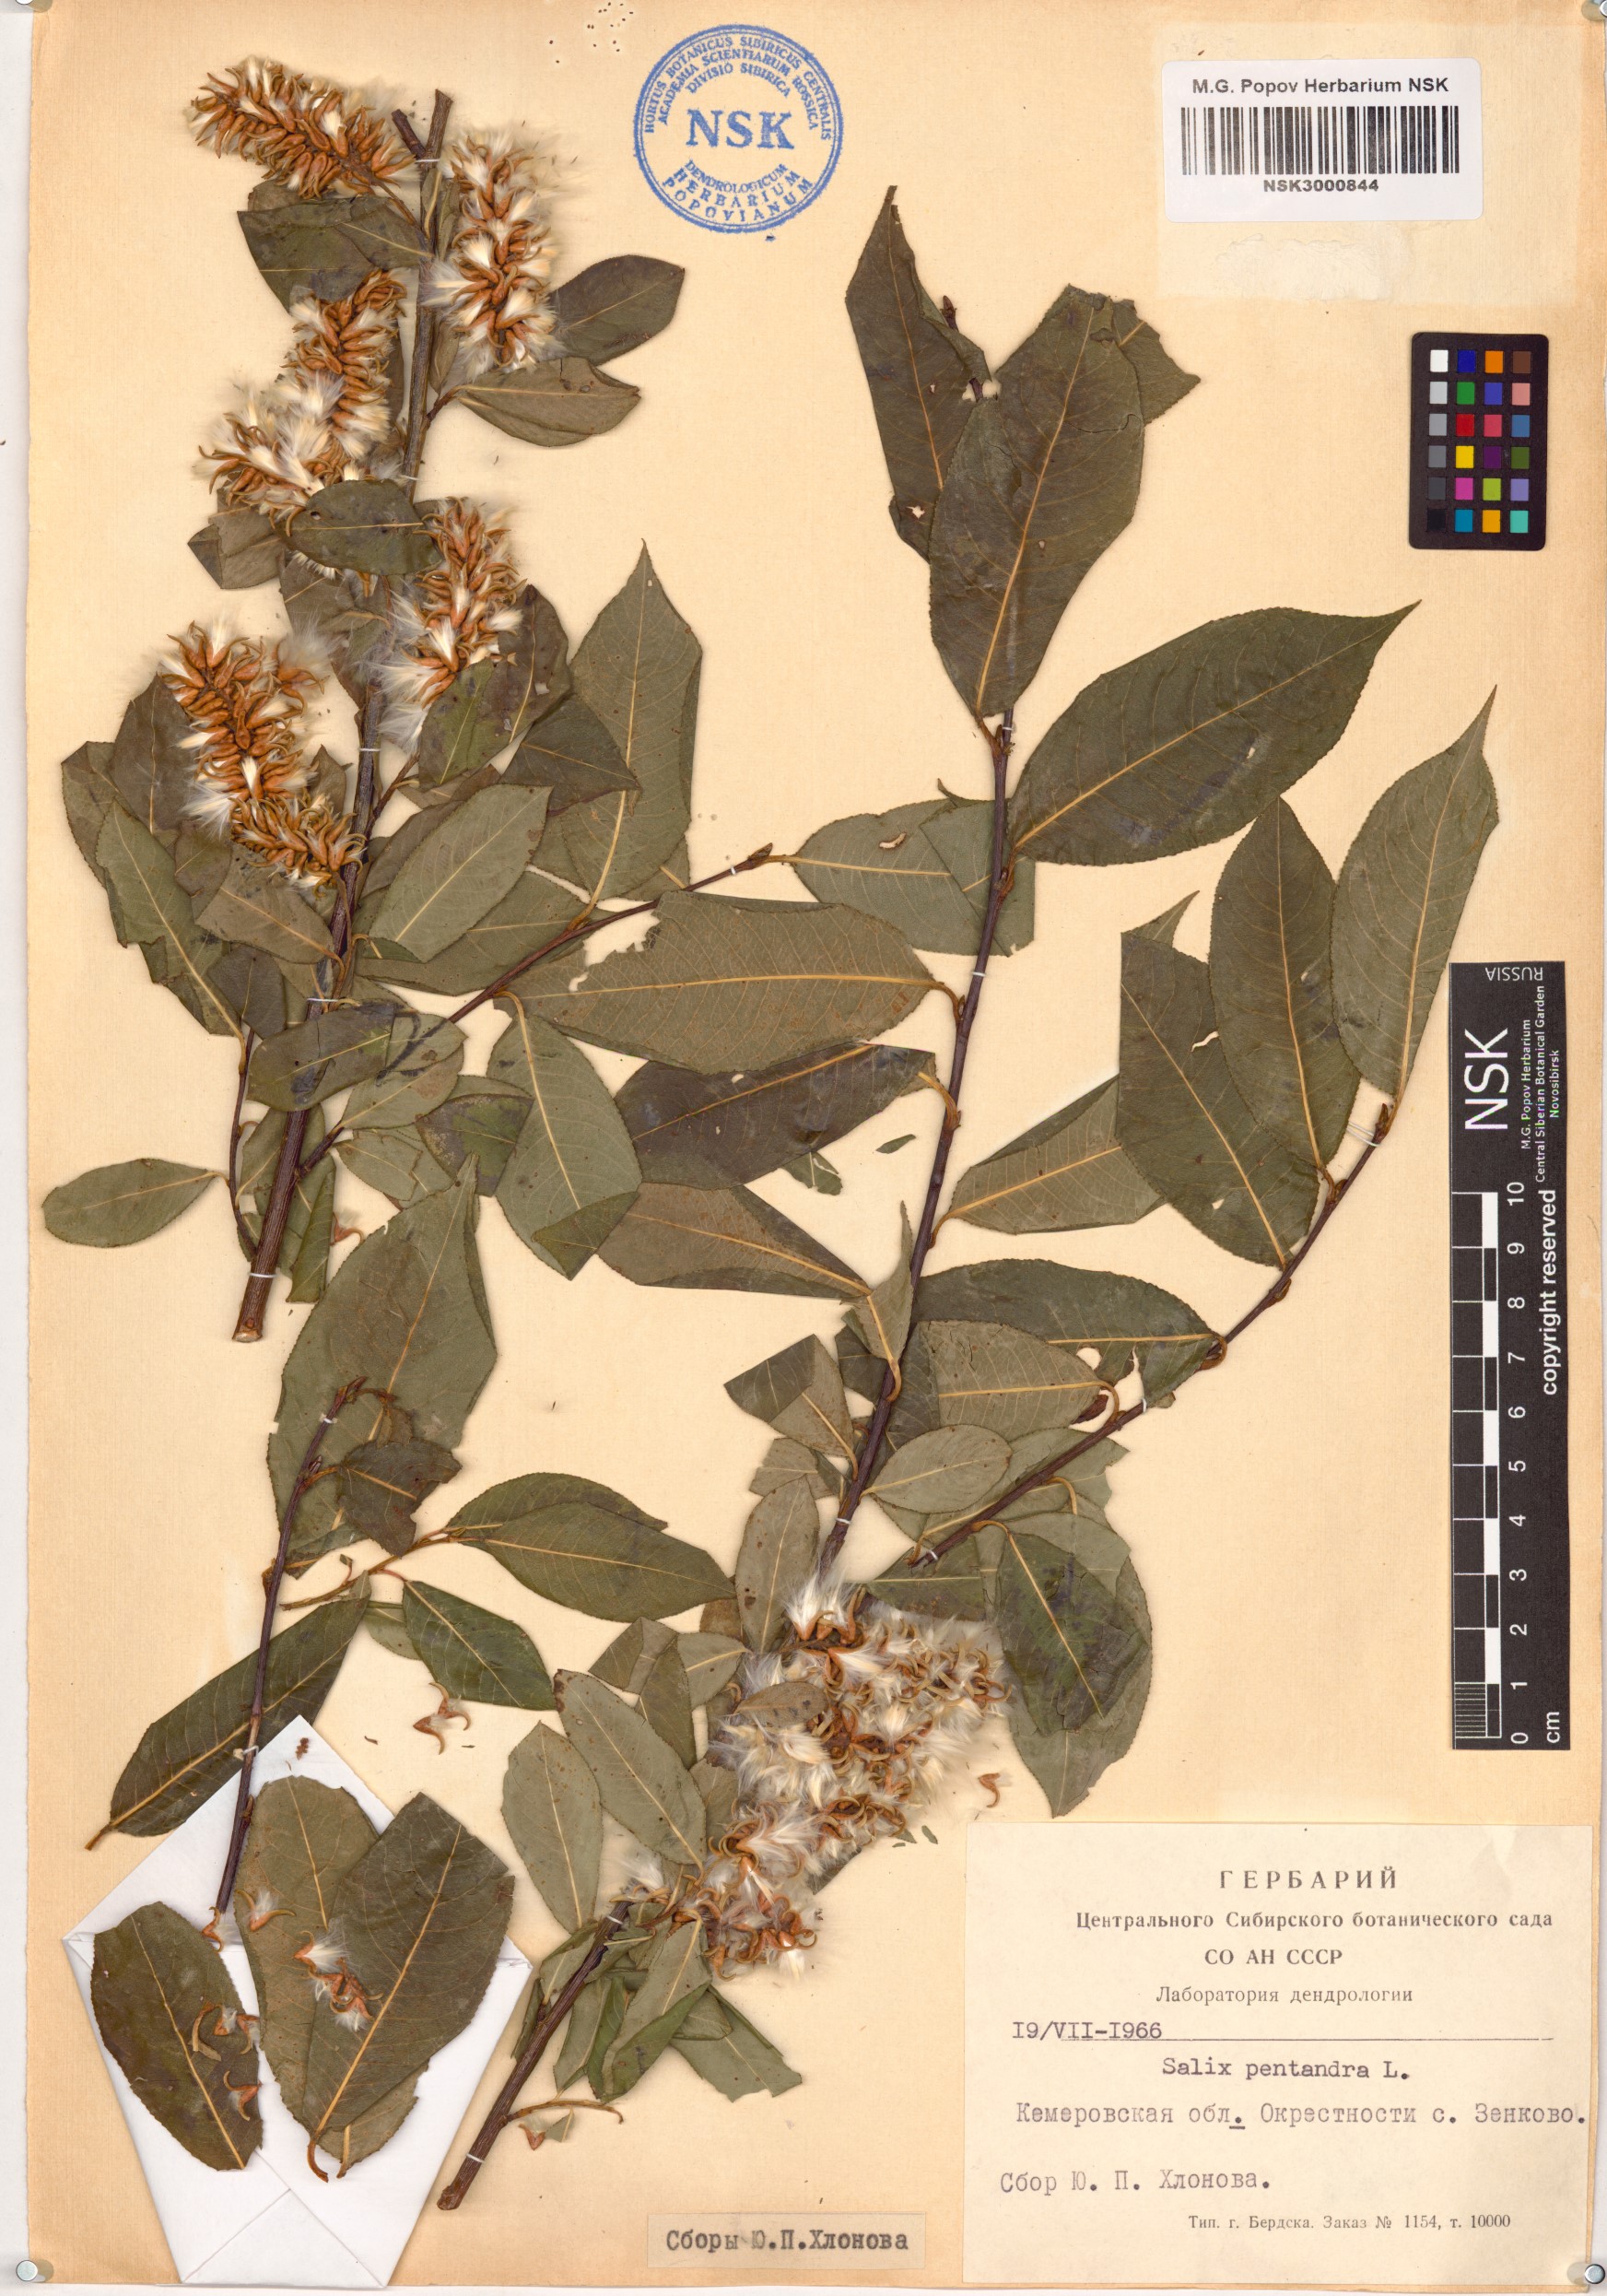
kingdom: Plantae
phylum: Tracheophyta
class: Magnoliopsida
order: Malpighiales
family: Salicaceae
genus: Salix
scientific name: Salix pentandra
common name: Bay willow
